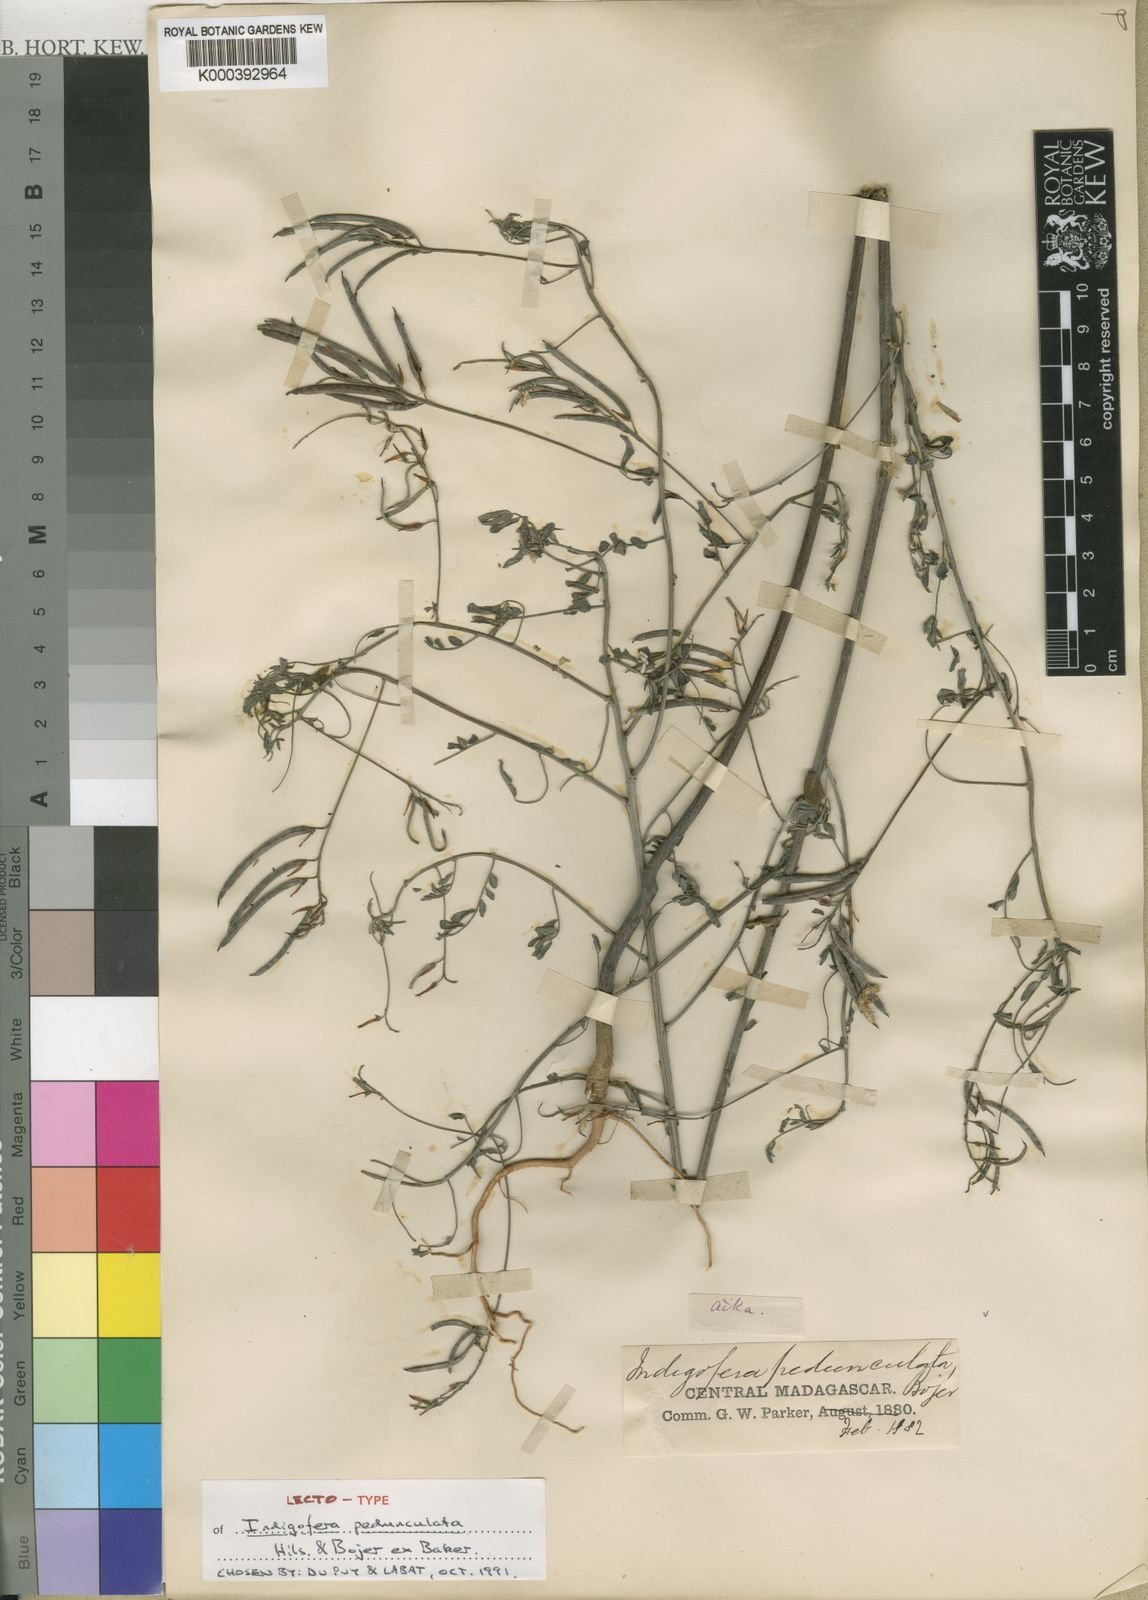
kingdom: Plantae
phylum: Tracheophyta
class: Magnoliopsida
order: Fabales
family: Fabaceae
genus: Indigofera
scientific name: Indigofera pedunculata
